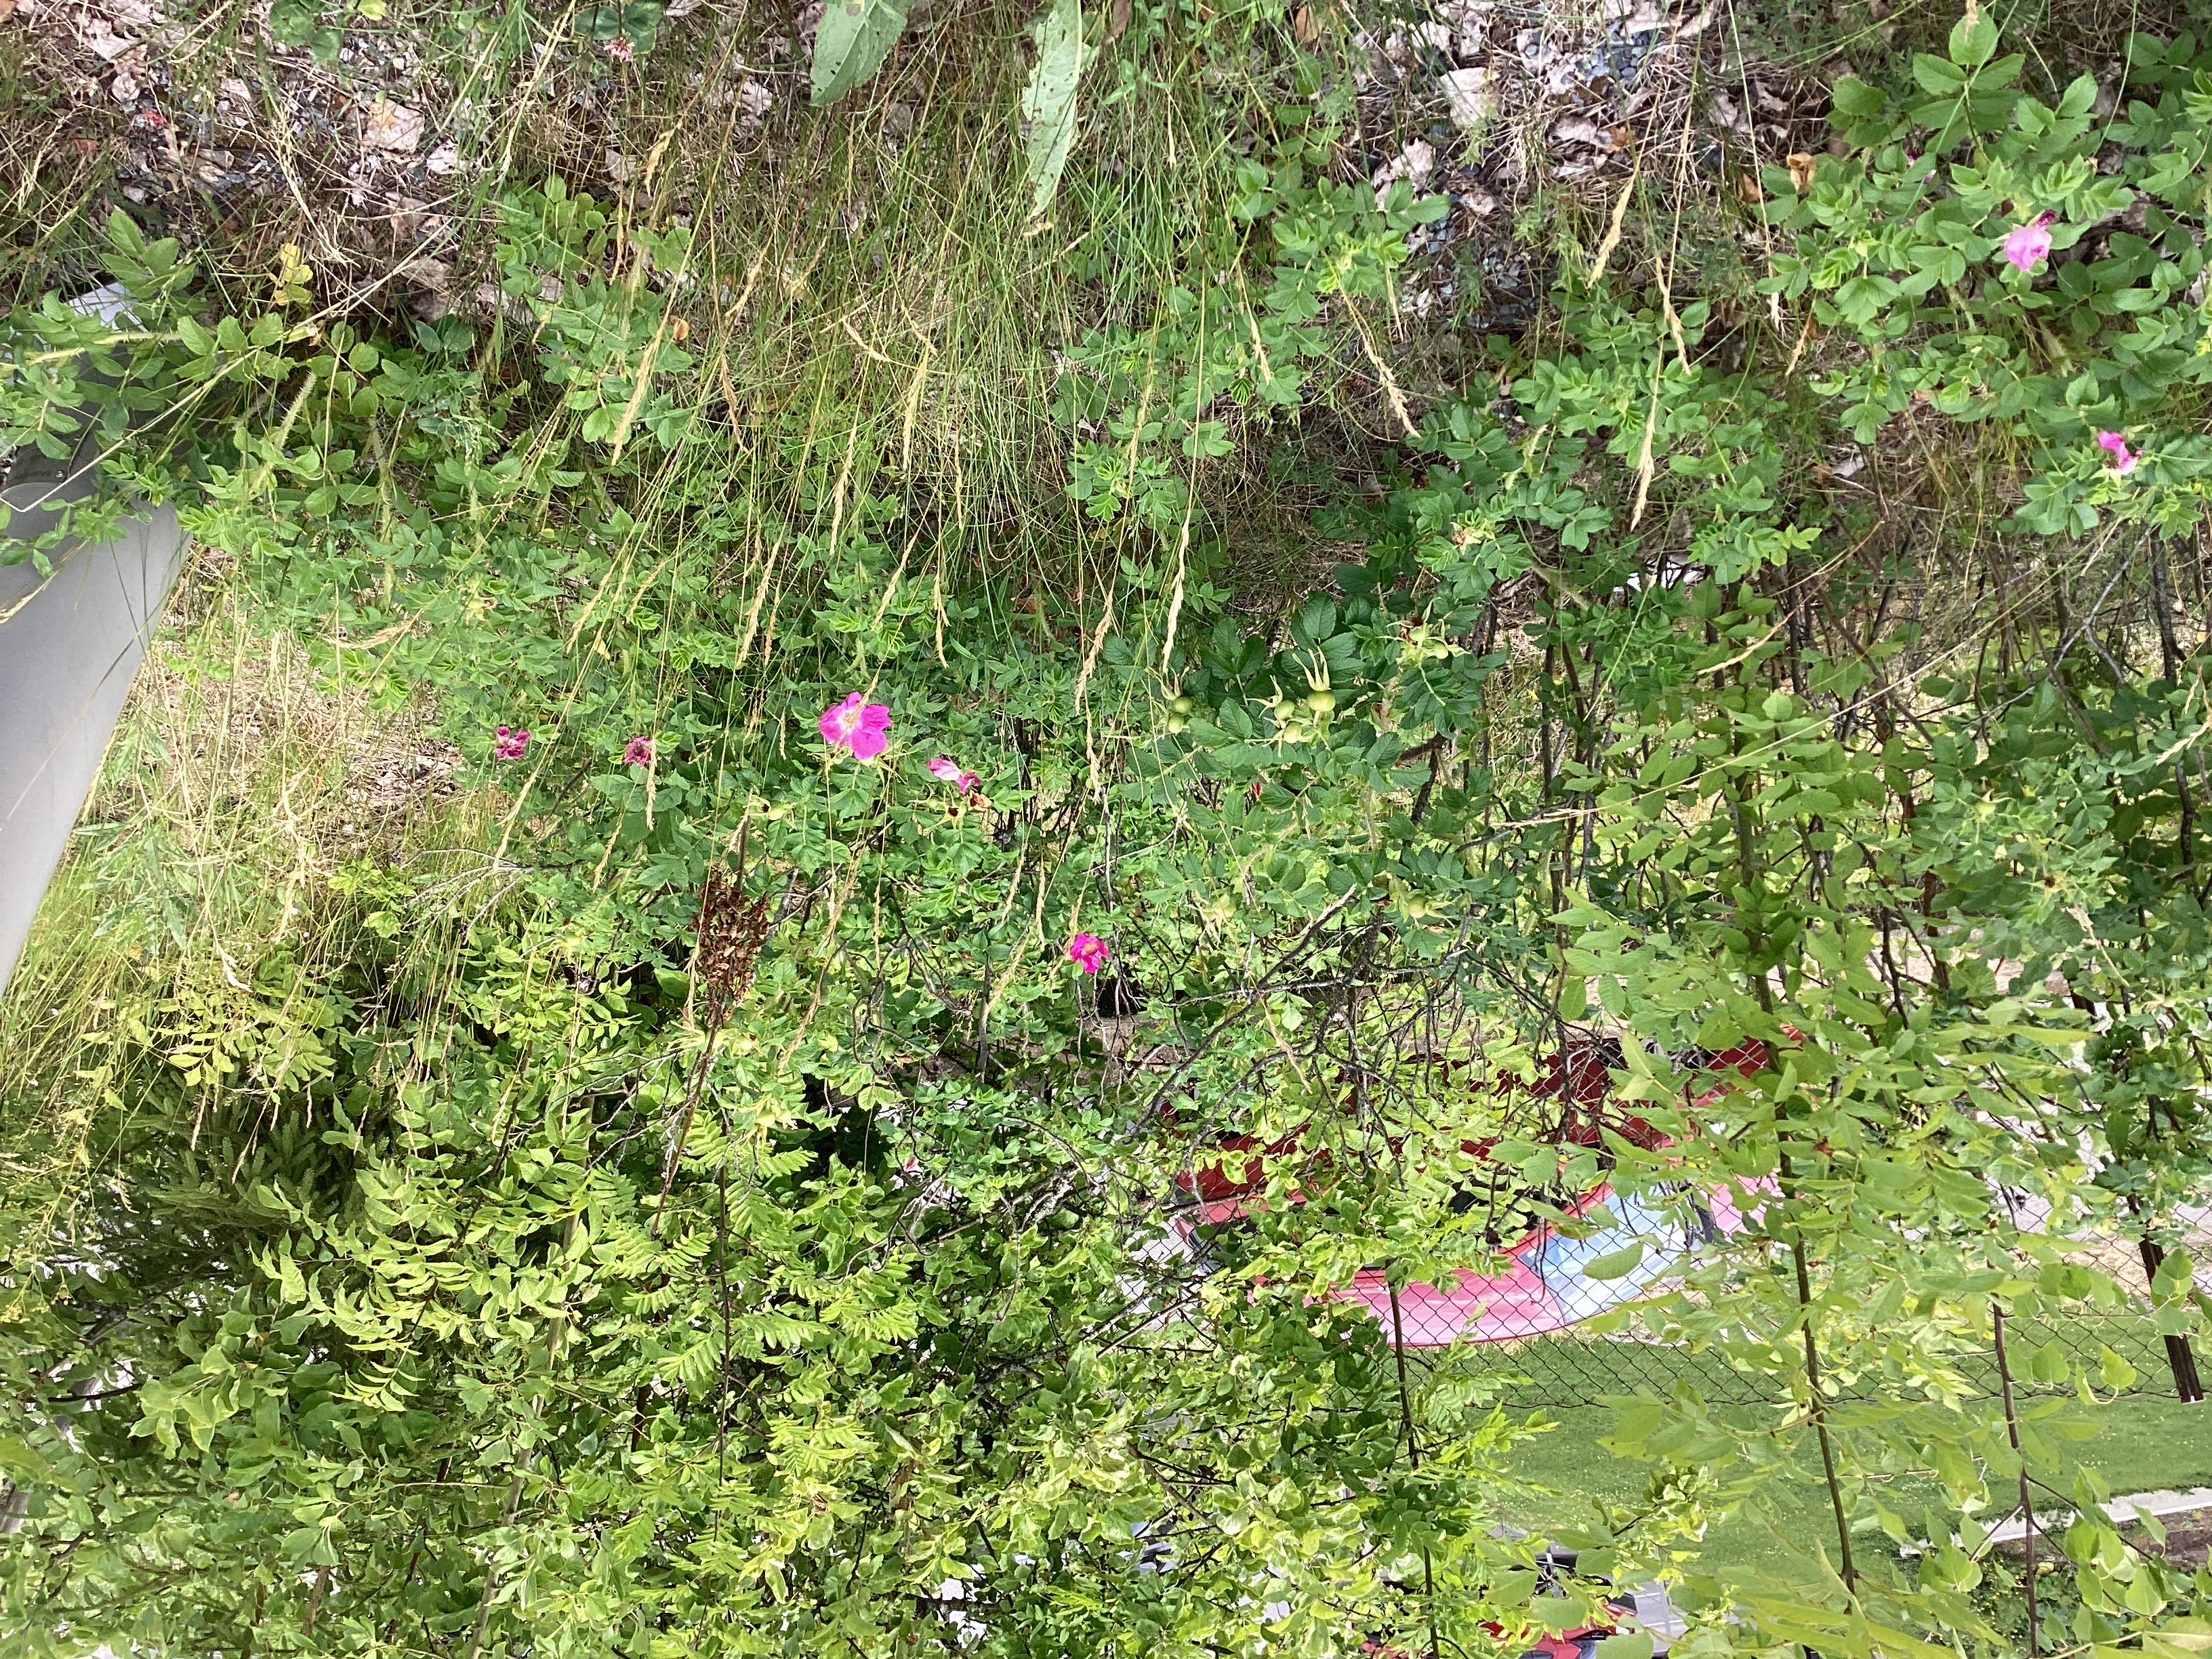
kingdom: Plantae
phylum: Tracheophyta
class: Magnoliopsida
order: Rosales
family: Rosaceae
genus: Rosa
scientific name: Rosa rugosa
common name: rynkerose
